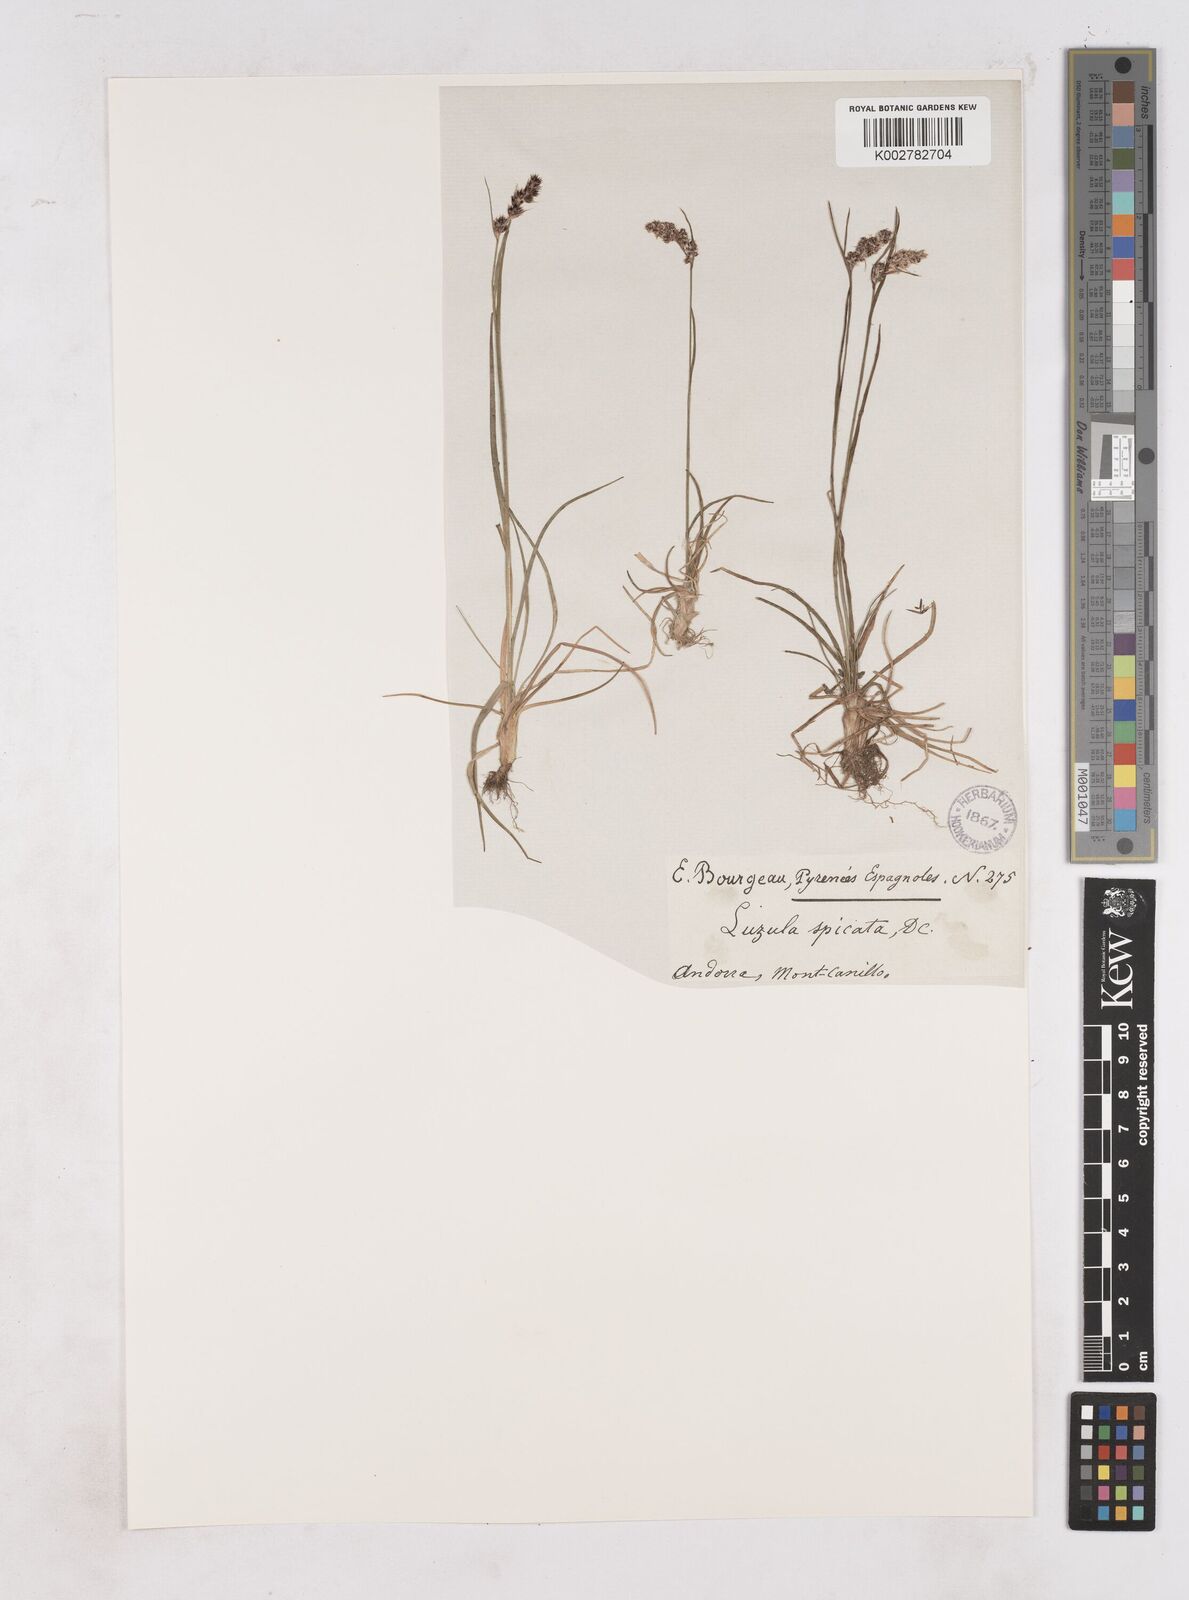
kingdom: Plantae
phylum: Tracheophyta
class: Liliopsida
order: Poales
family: Juncaceae
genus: Luzula
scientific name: Luzula spicata
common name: Spiked wood-rush
